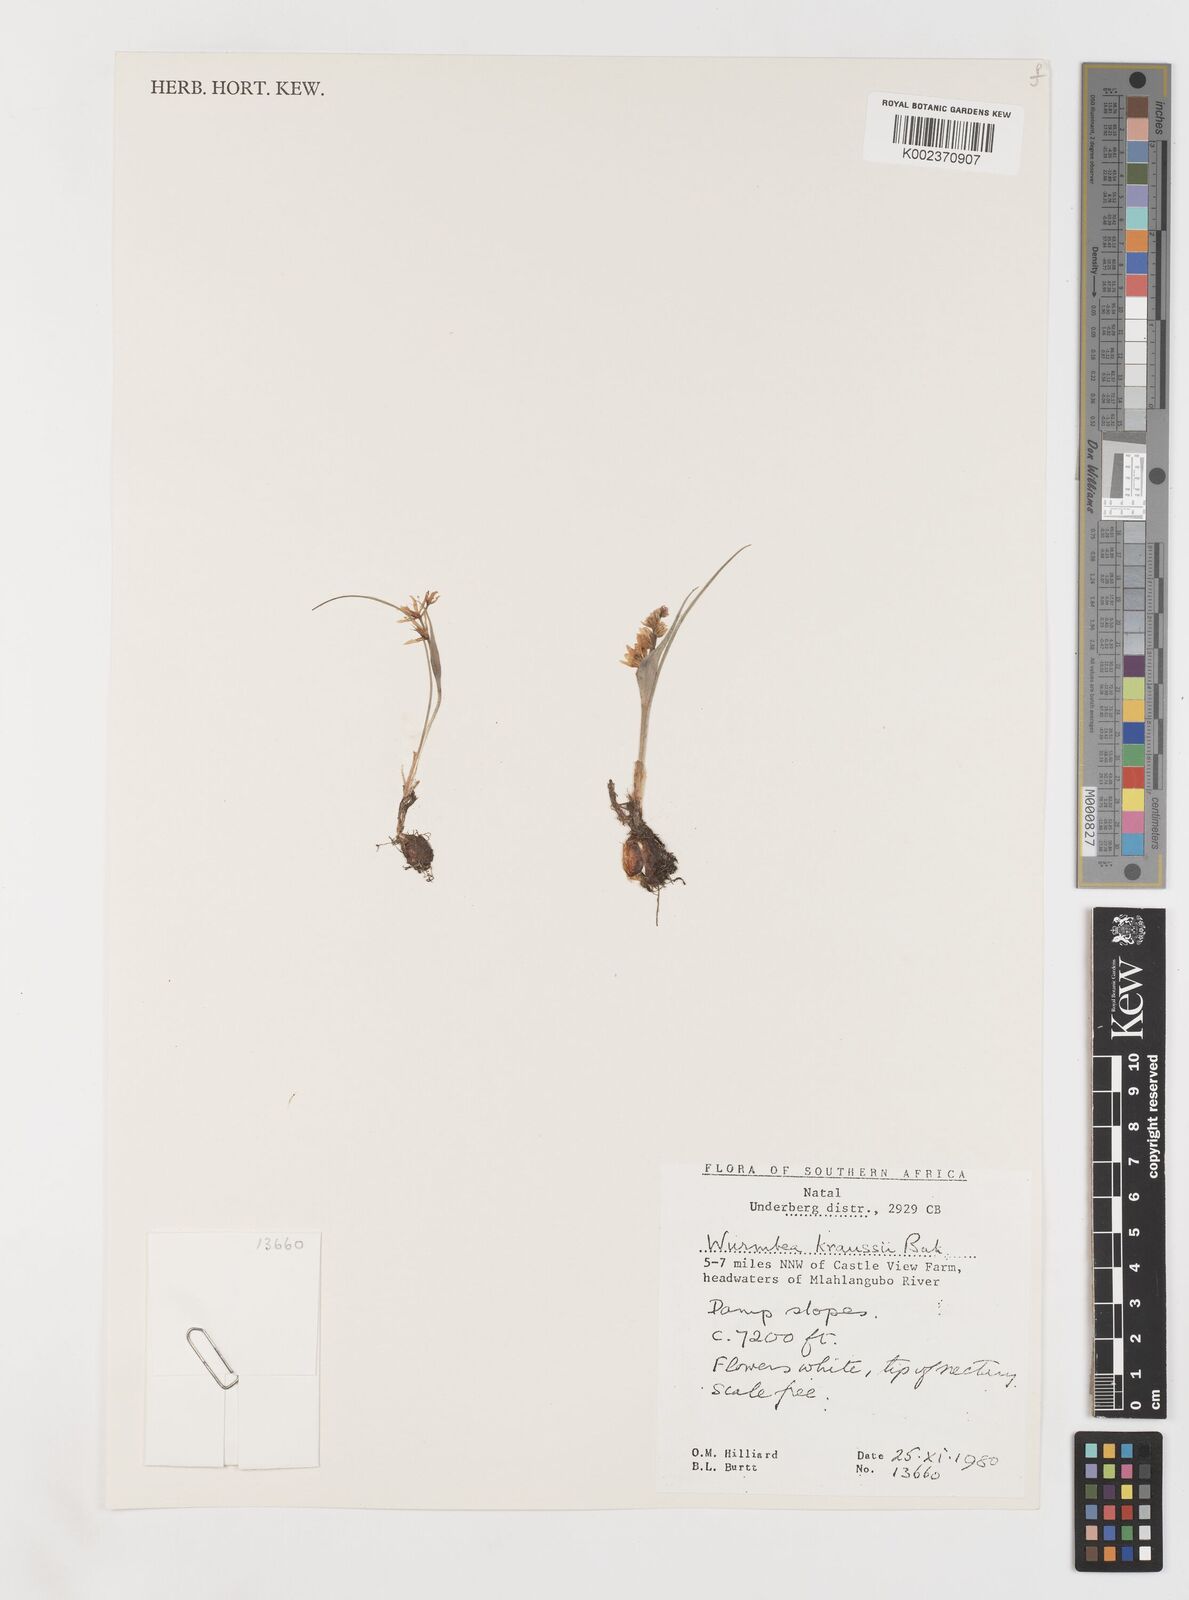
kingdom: Plantae
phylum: Tracheophyta
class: Liliopsida
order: Liliales
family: Colchicaceae
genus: Wurmbea
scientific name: Wurmbea kraussii
